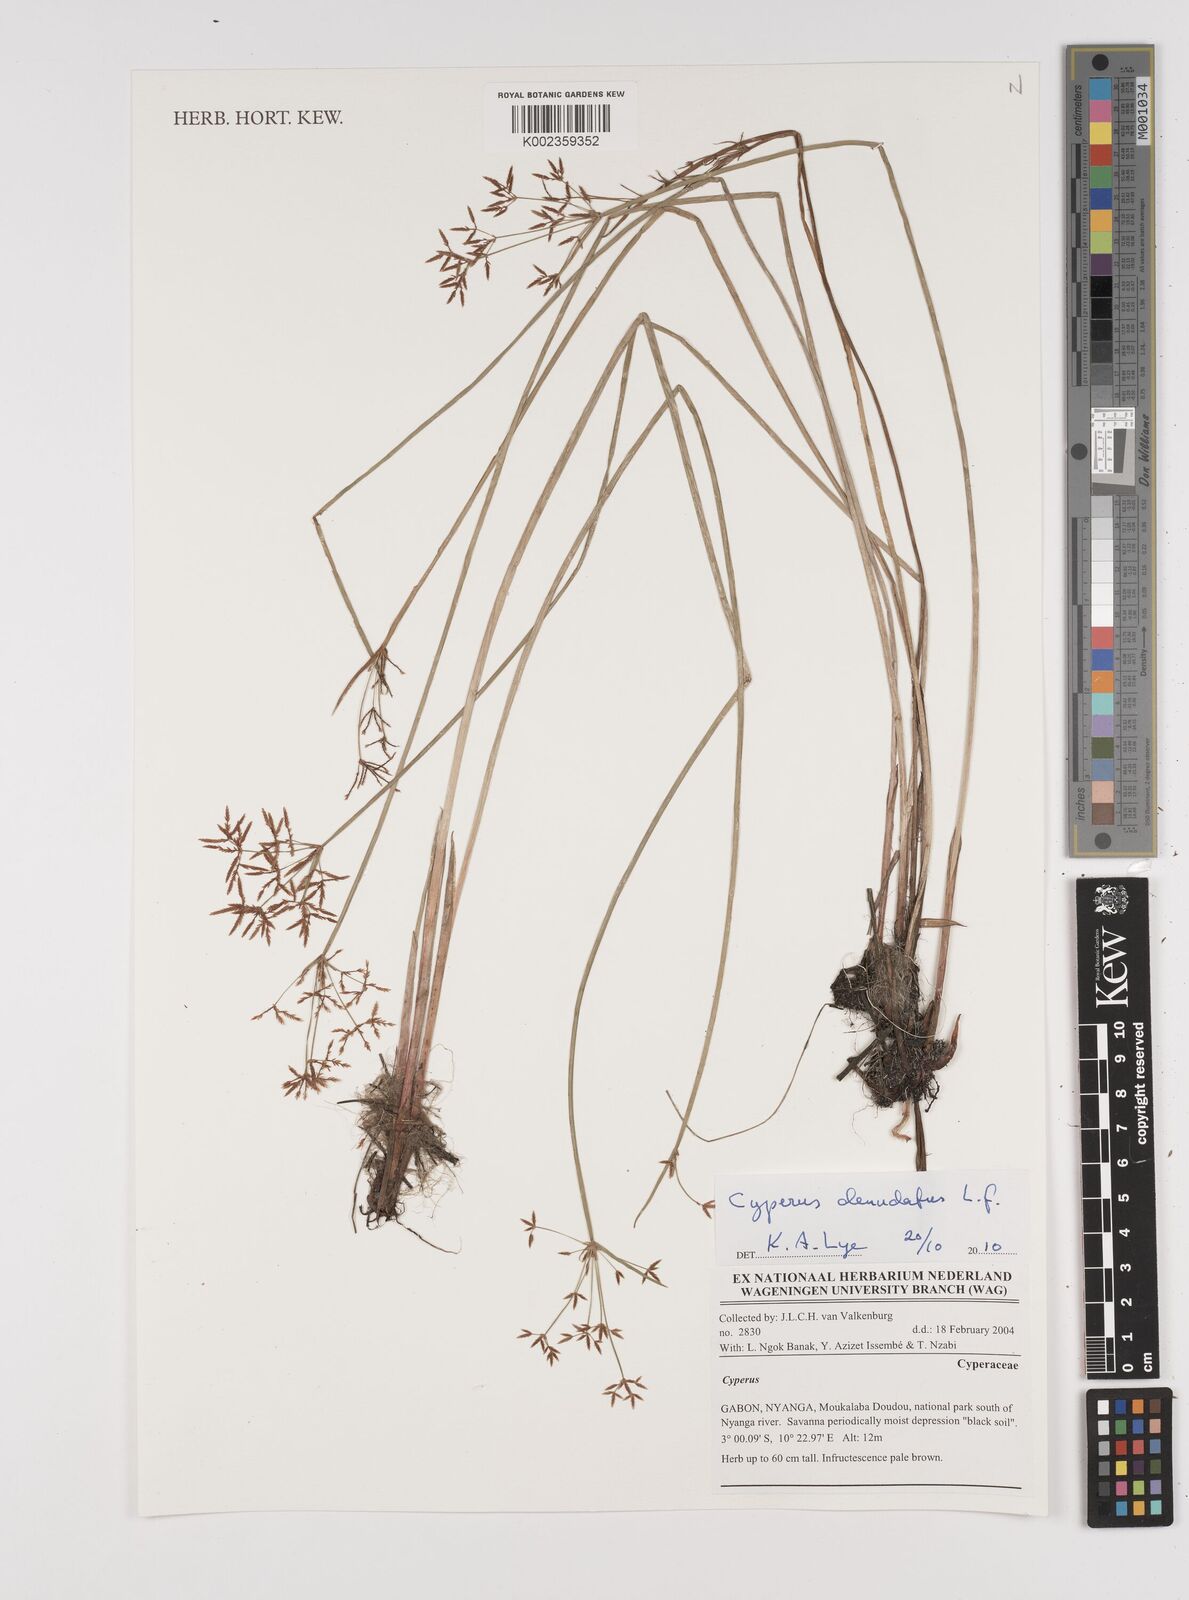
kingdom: Plantae
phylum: Tracheophyta
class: Liliopsida
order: Poales
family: Cyperaceae
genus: Cyperus
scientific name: Cyperus denudatus
